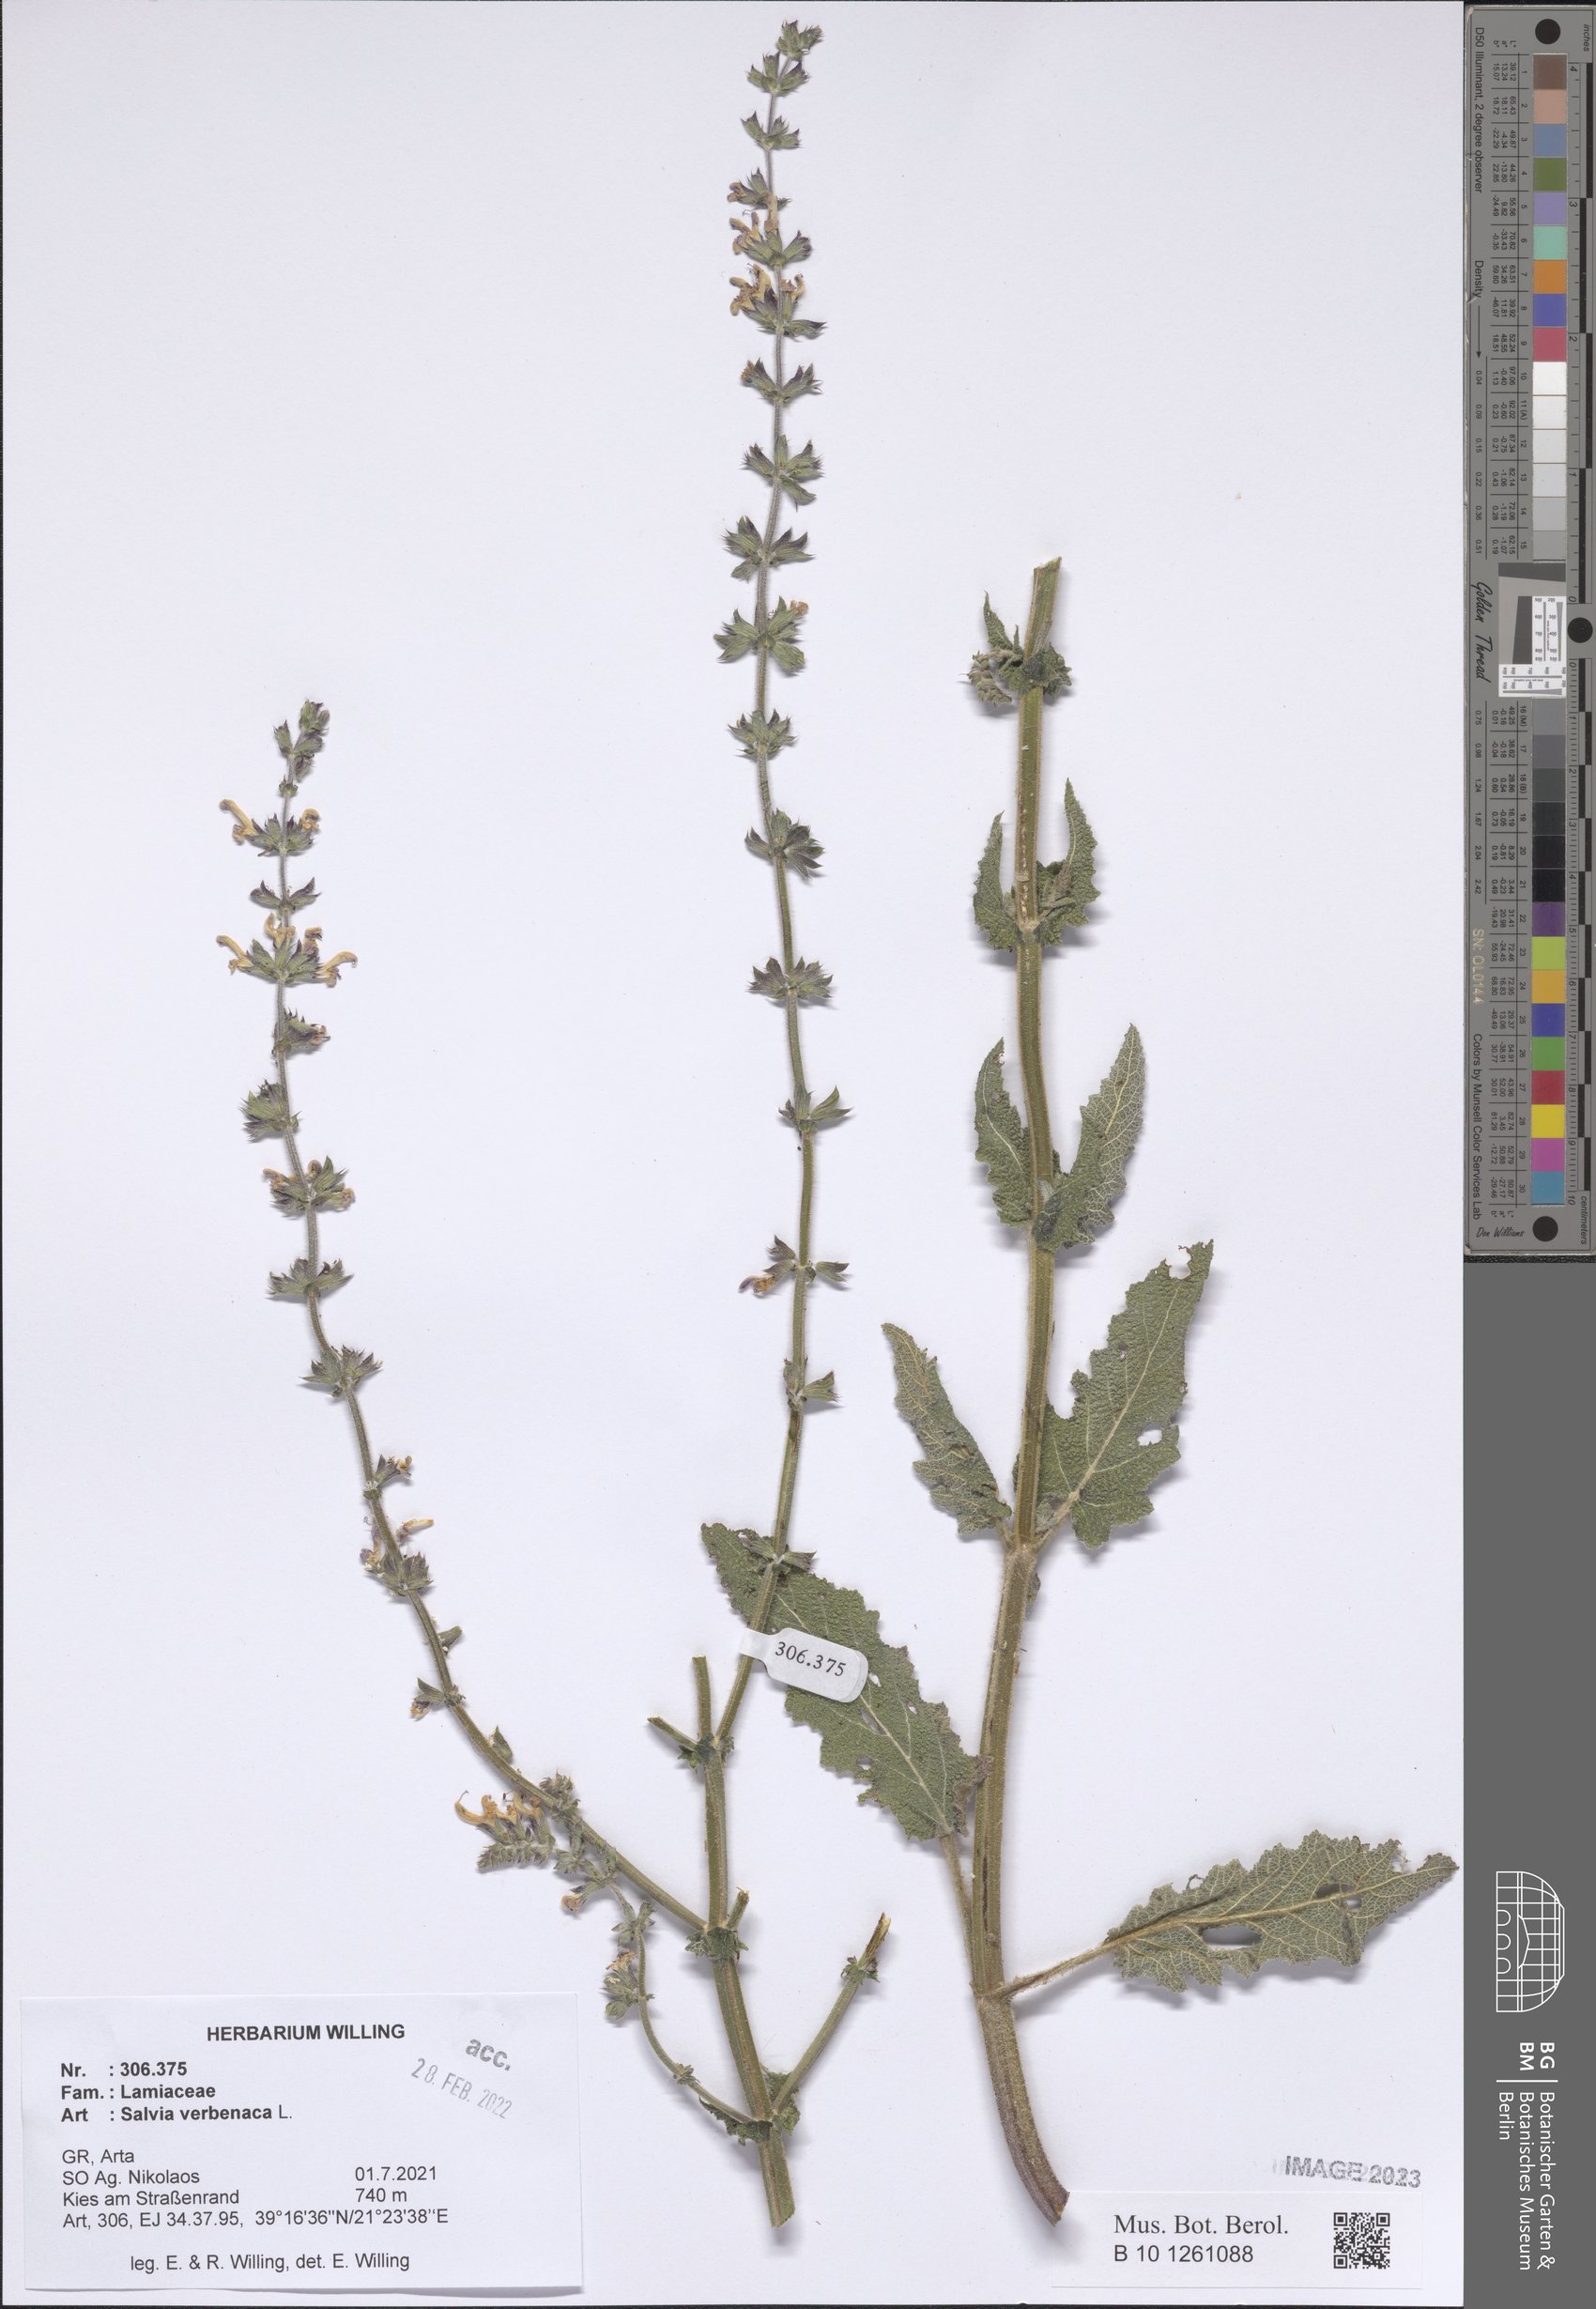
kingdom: Plantae
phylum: Tracheophyta
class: Magnoliopsida
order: Lamiales
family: Lamiaceae
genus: Salvia
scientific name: Salvia verbenaca
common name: Wild clary
